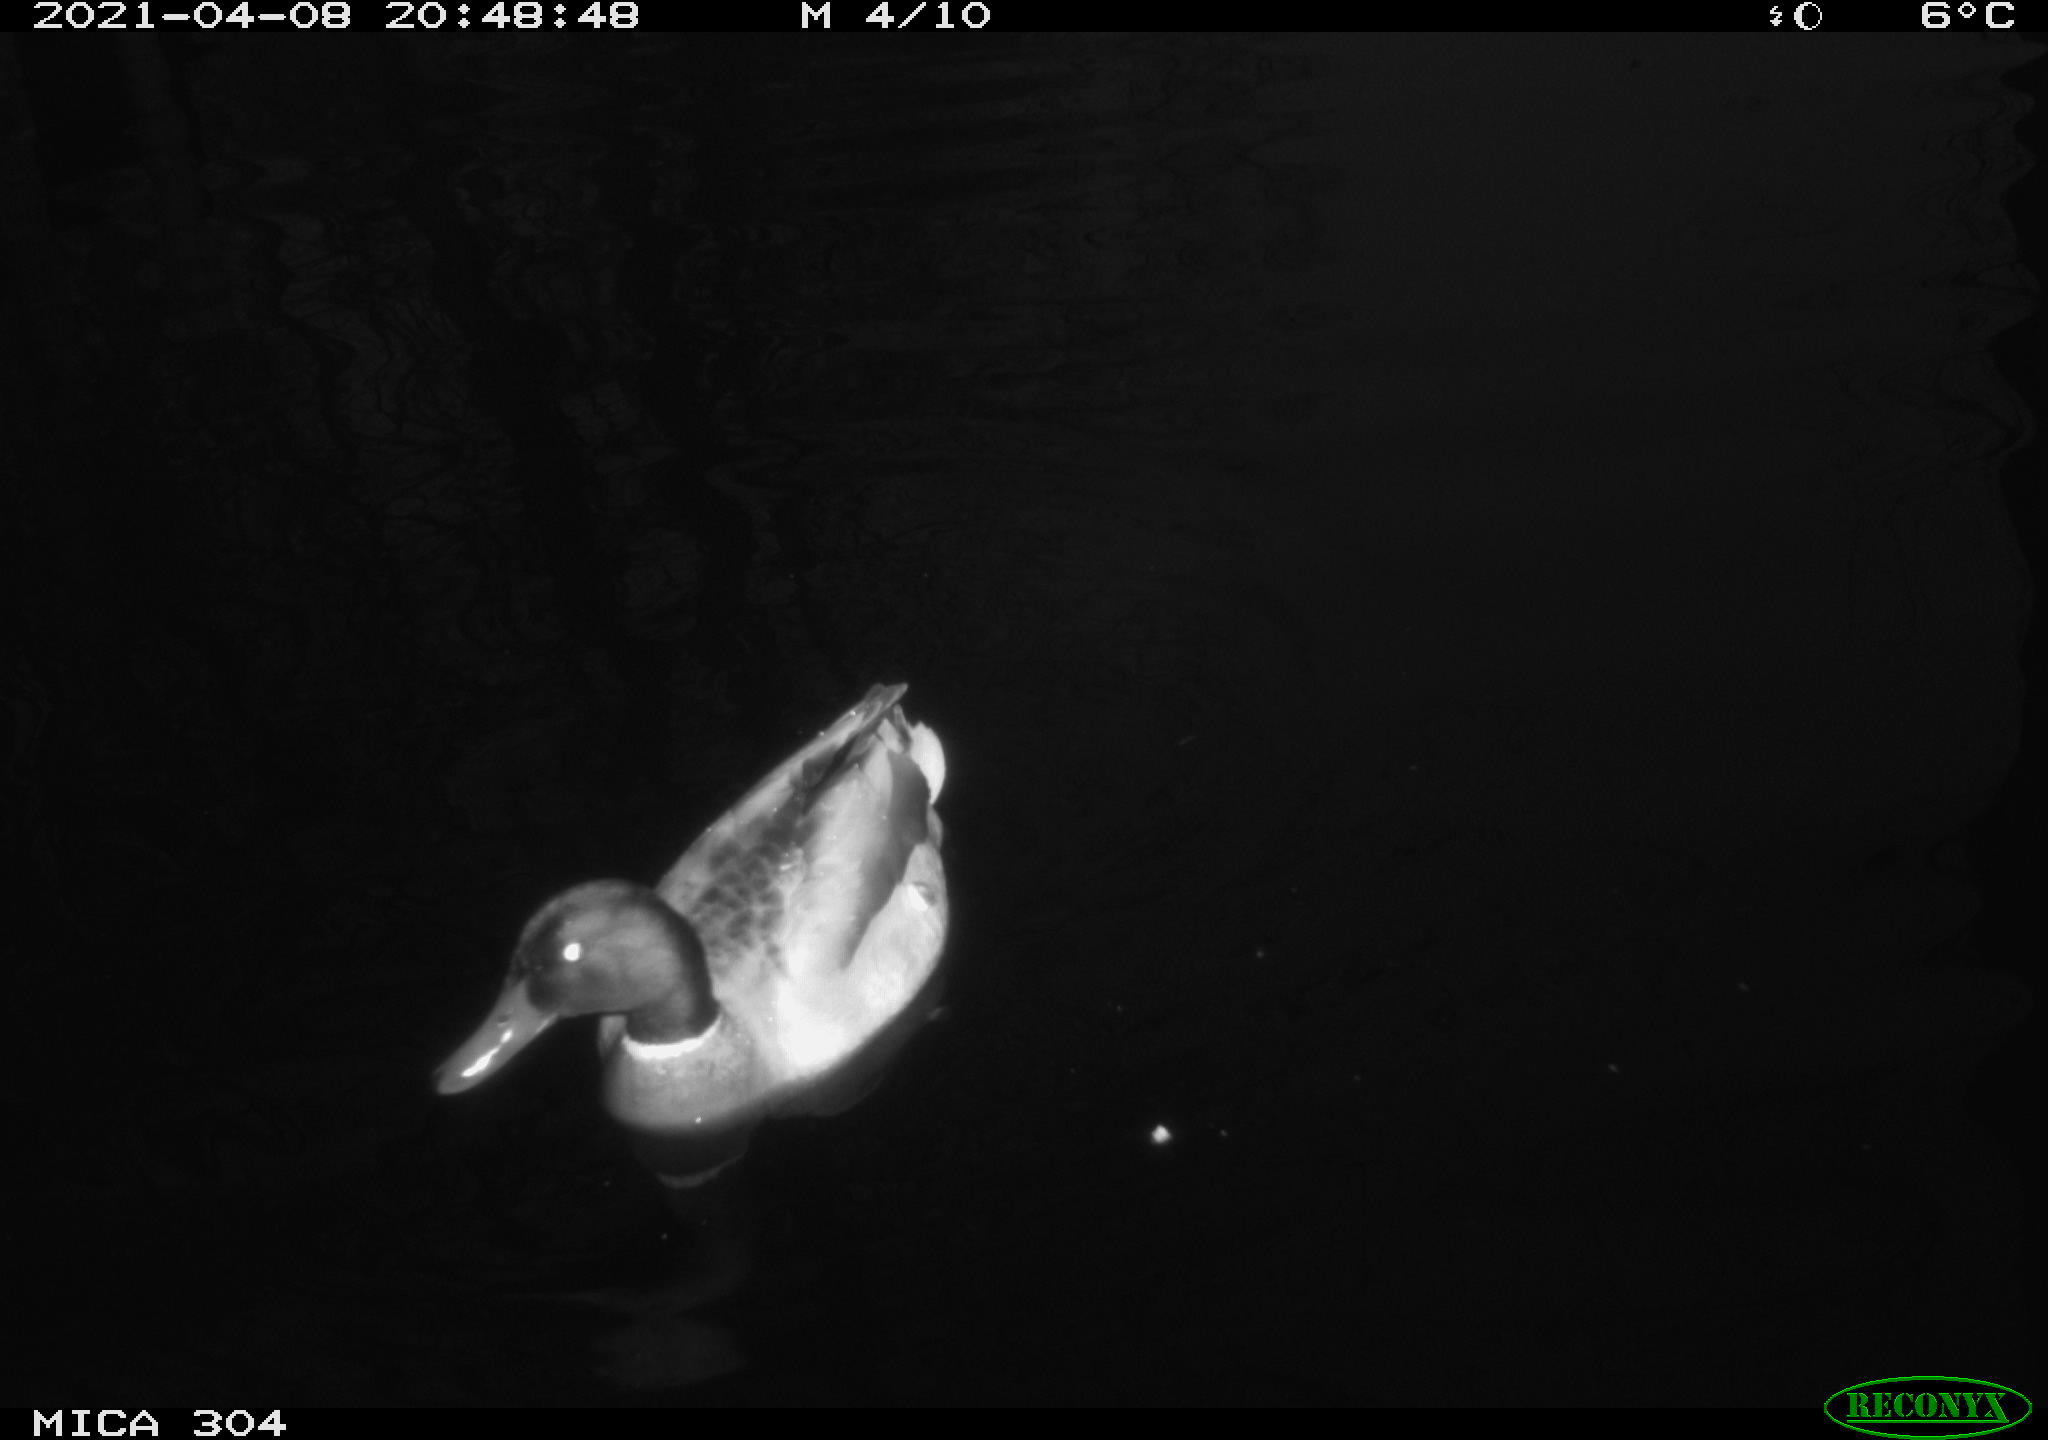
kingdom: Animalia
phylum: Chordata
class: Aves
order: Anseriformes
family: Anatidae
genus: Anas
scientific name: Anas
